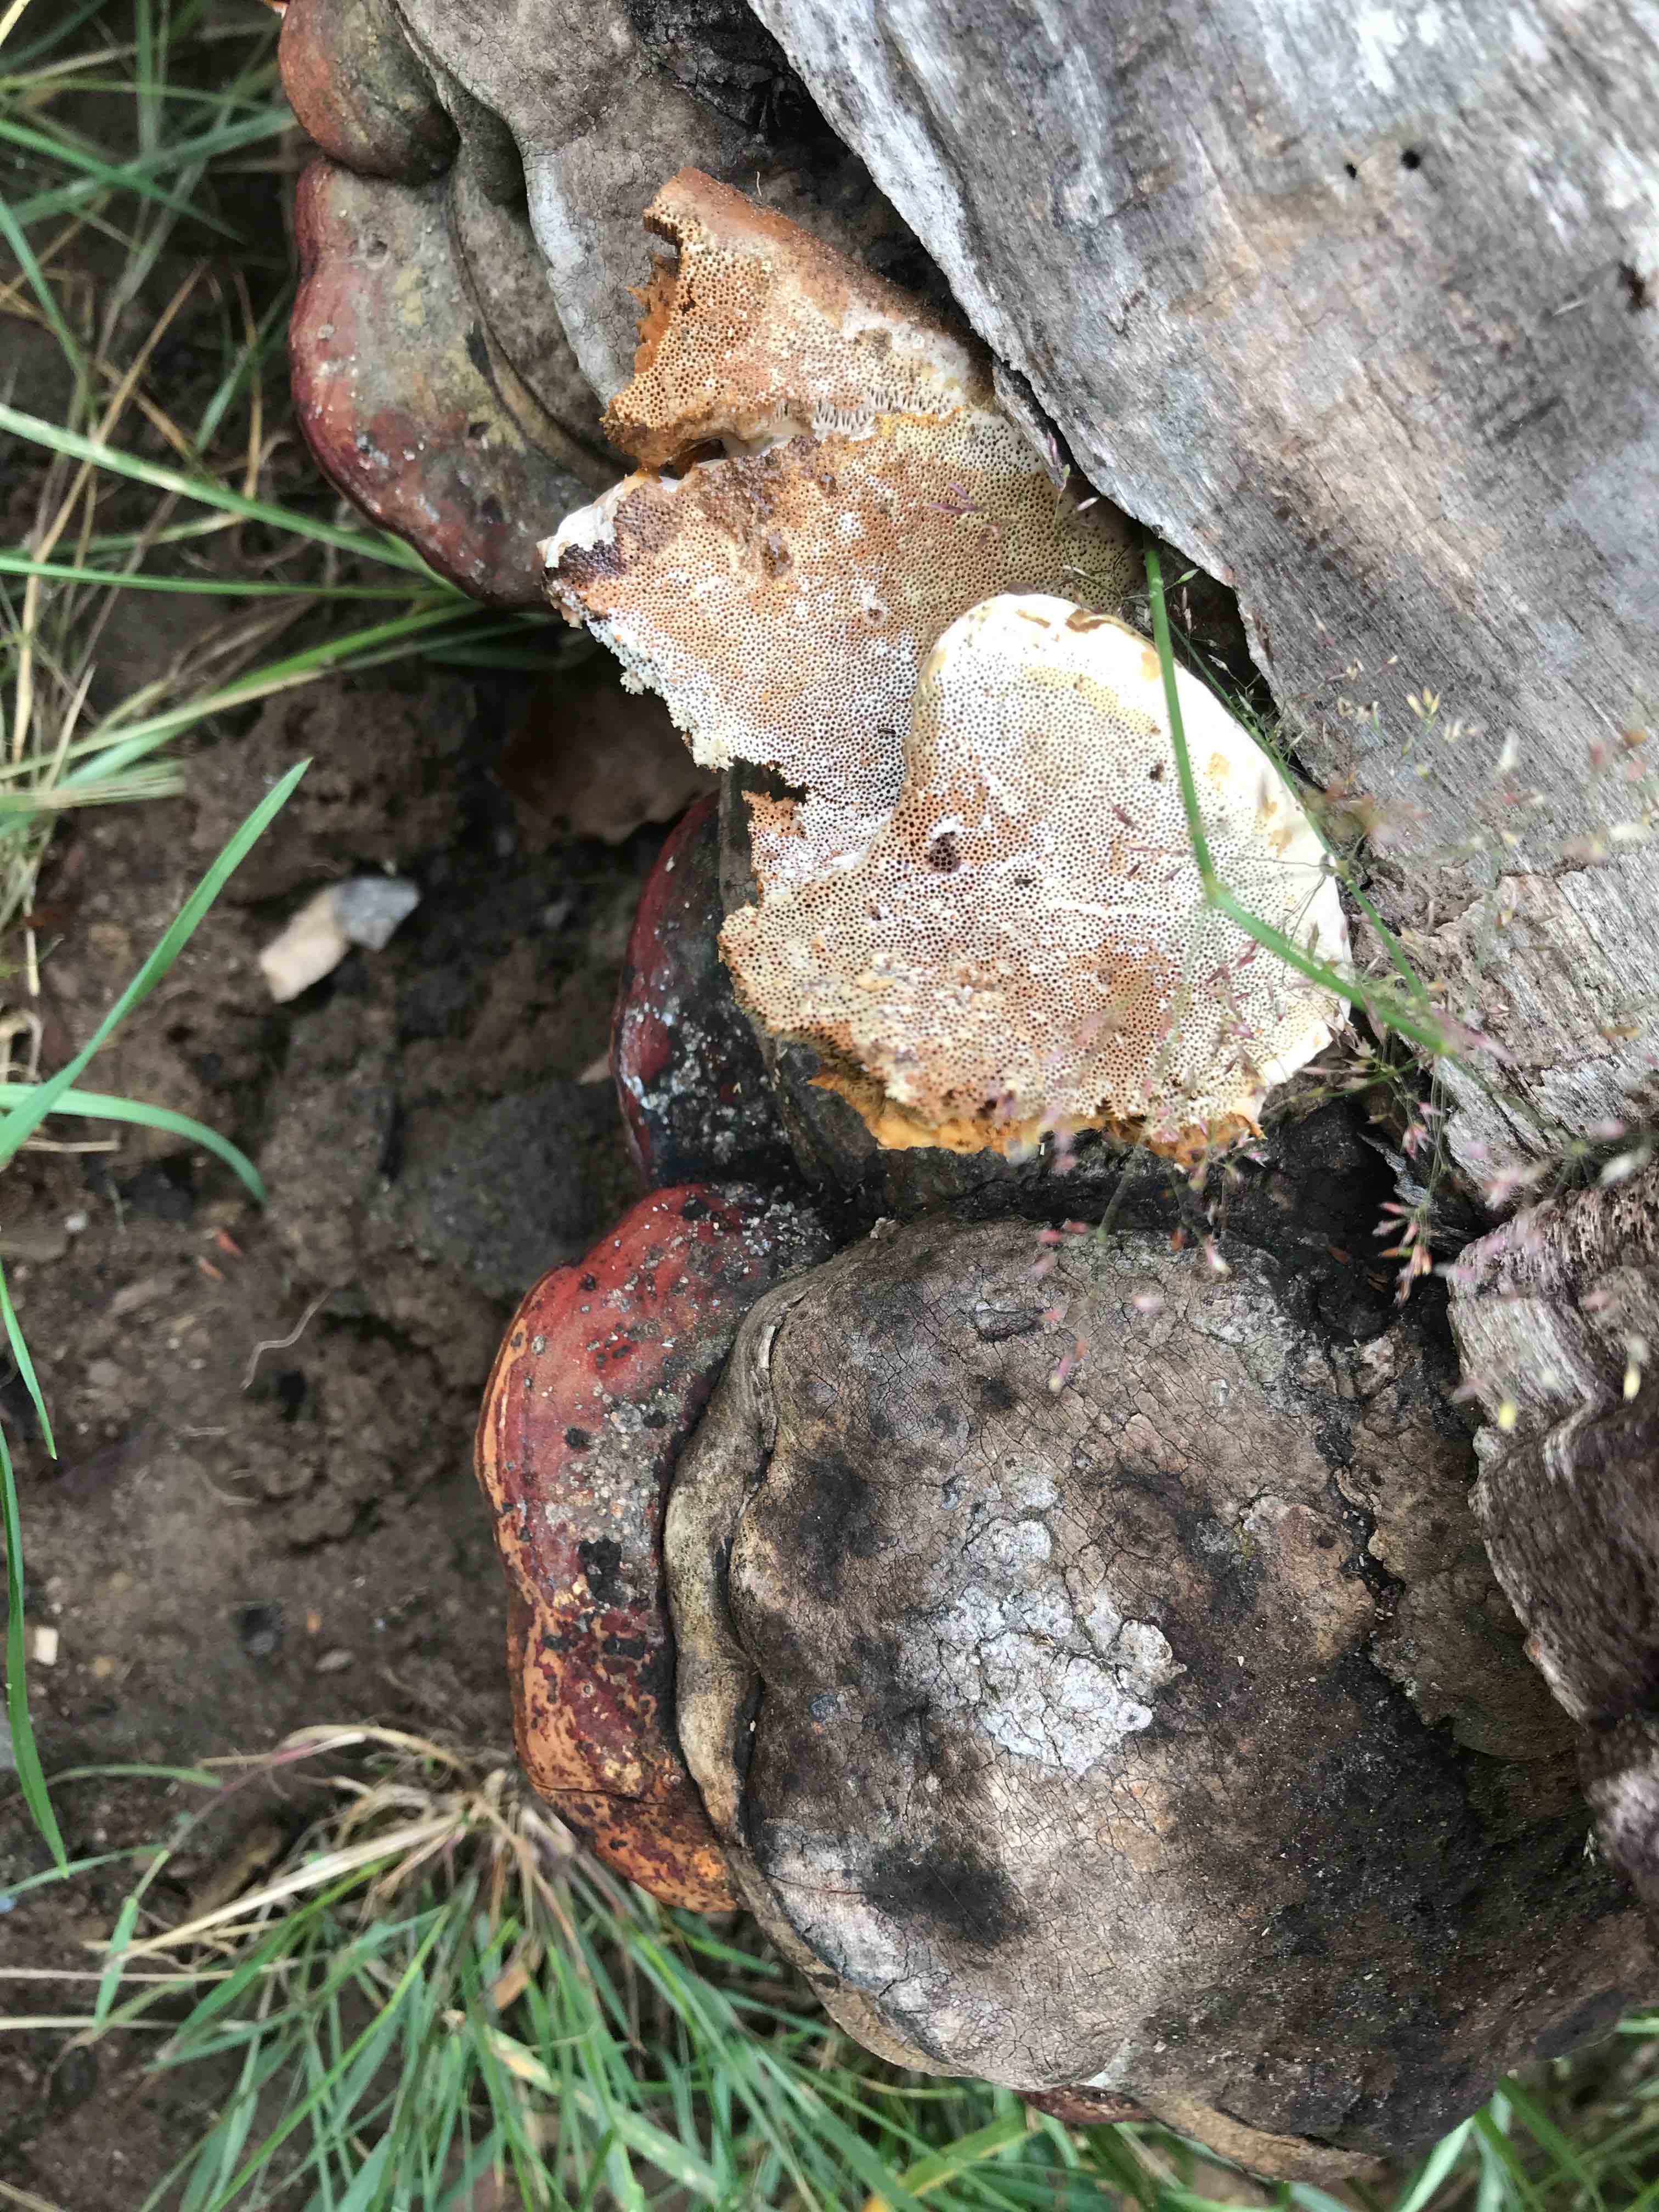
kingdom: Fungi
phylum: Basidiomycota
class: Agaricomycetes
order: Polyporales
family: Fomitopsidaceae
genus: Fomitopsis
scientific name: Fomitopsis pinicola
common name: randbæltet hovporesvamp
